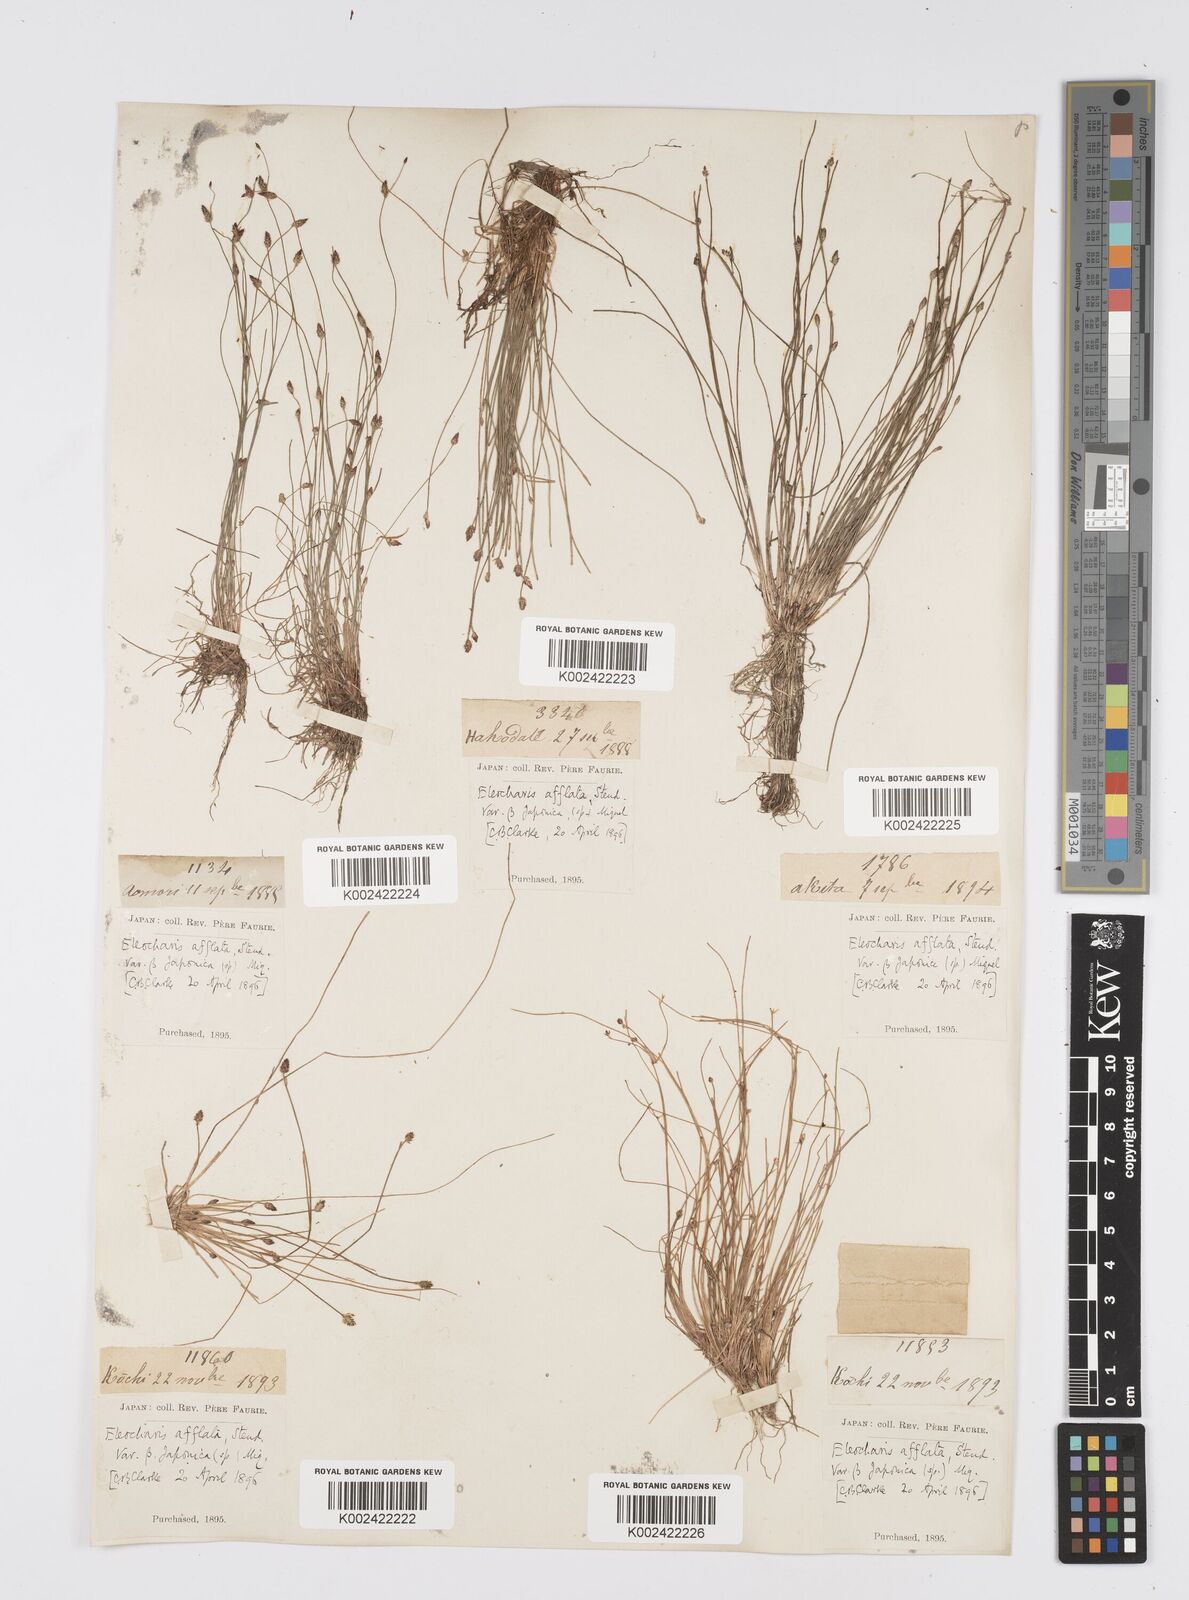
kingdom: Plantae
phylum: Tracheophyta
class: Liliopsida
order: Poales
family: Cyperaceae
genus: Eleocharis
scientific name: Eleocharis pellucida
